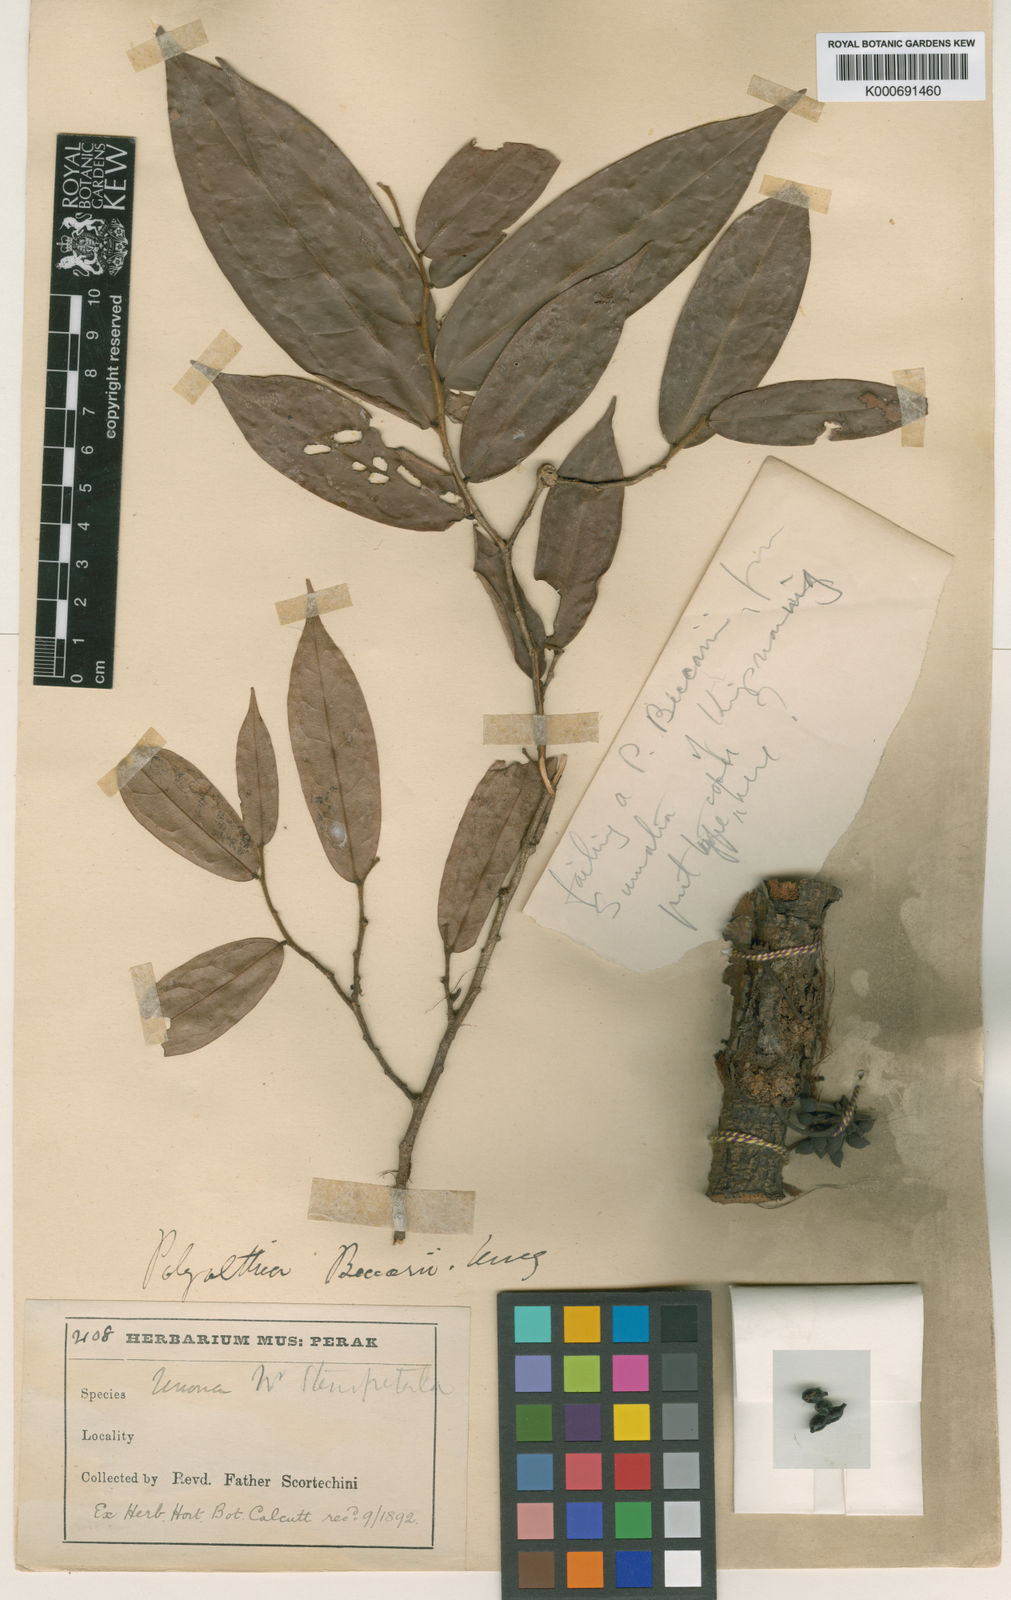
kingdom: Plantae
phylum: Tracheophyta
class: Magnoliopsida
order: Magnoliales
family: Annonaceae
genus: Polyalthia
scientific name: Polyalthia cauliflora
